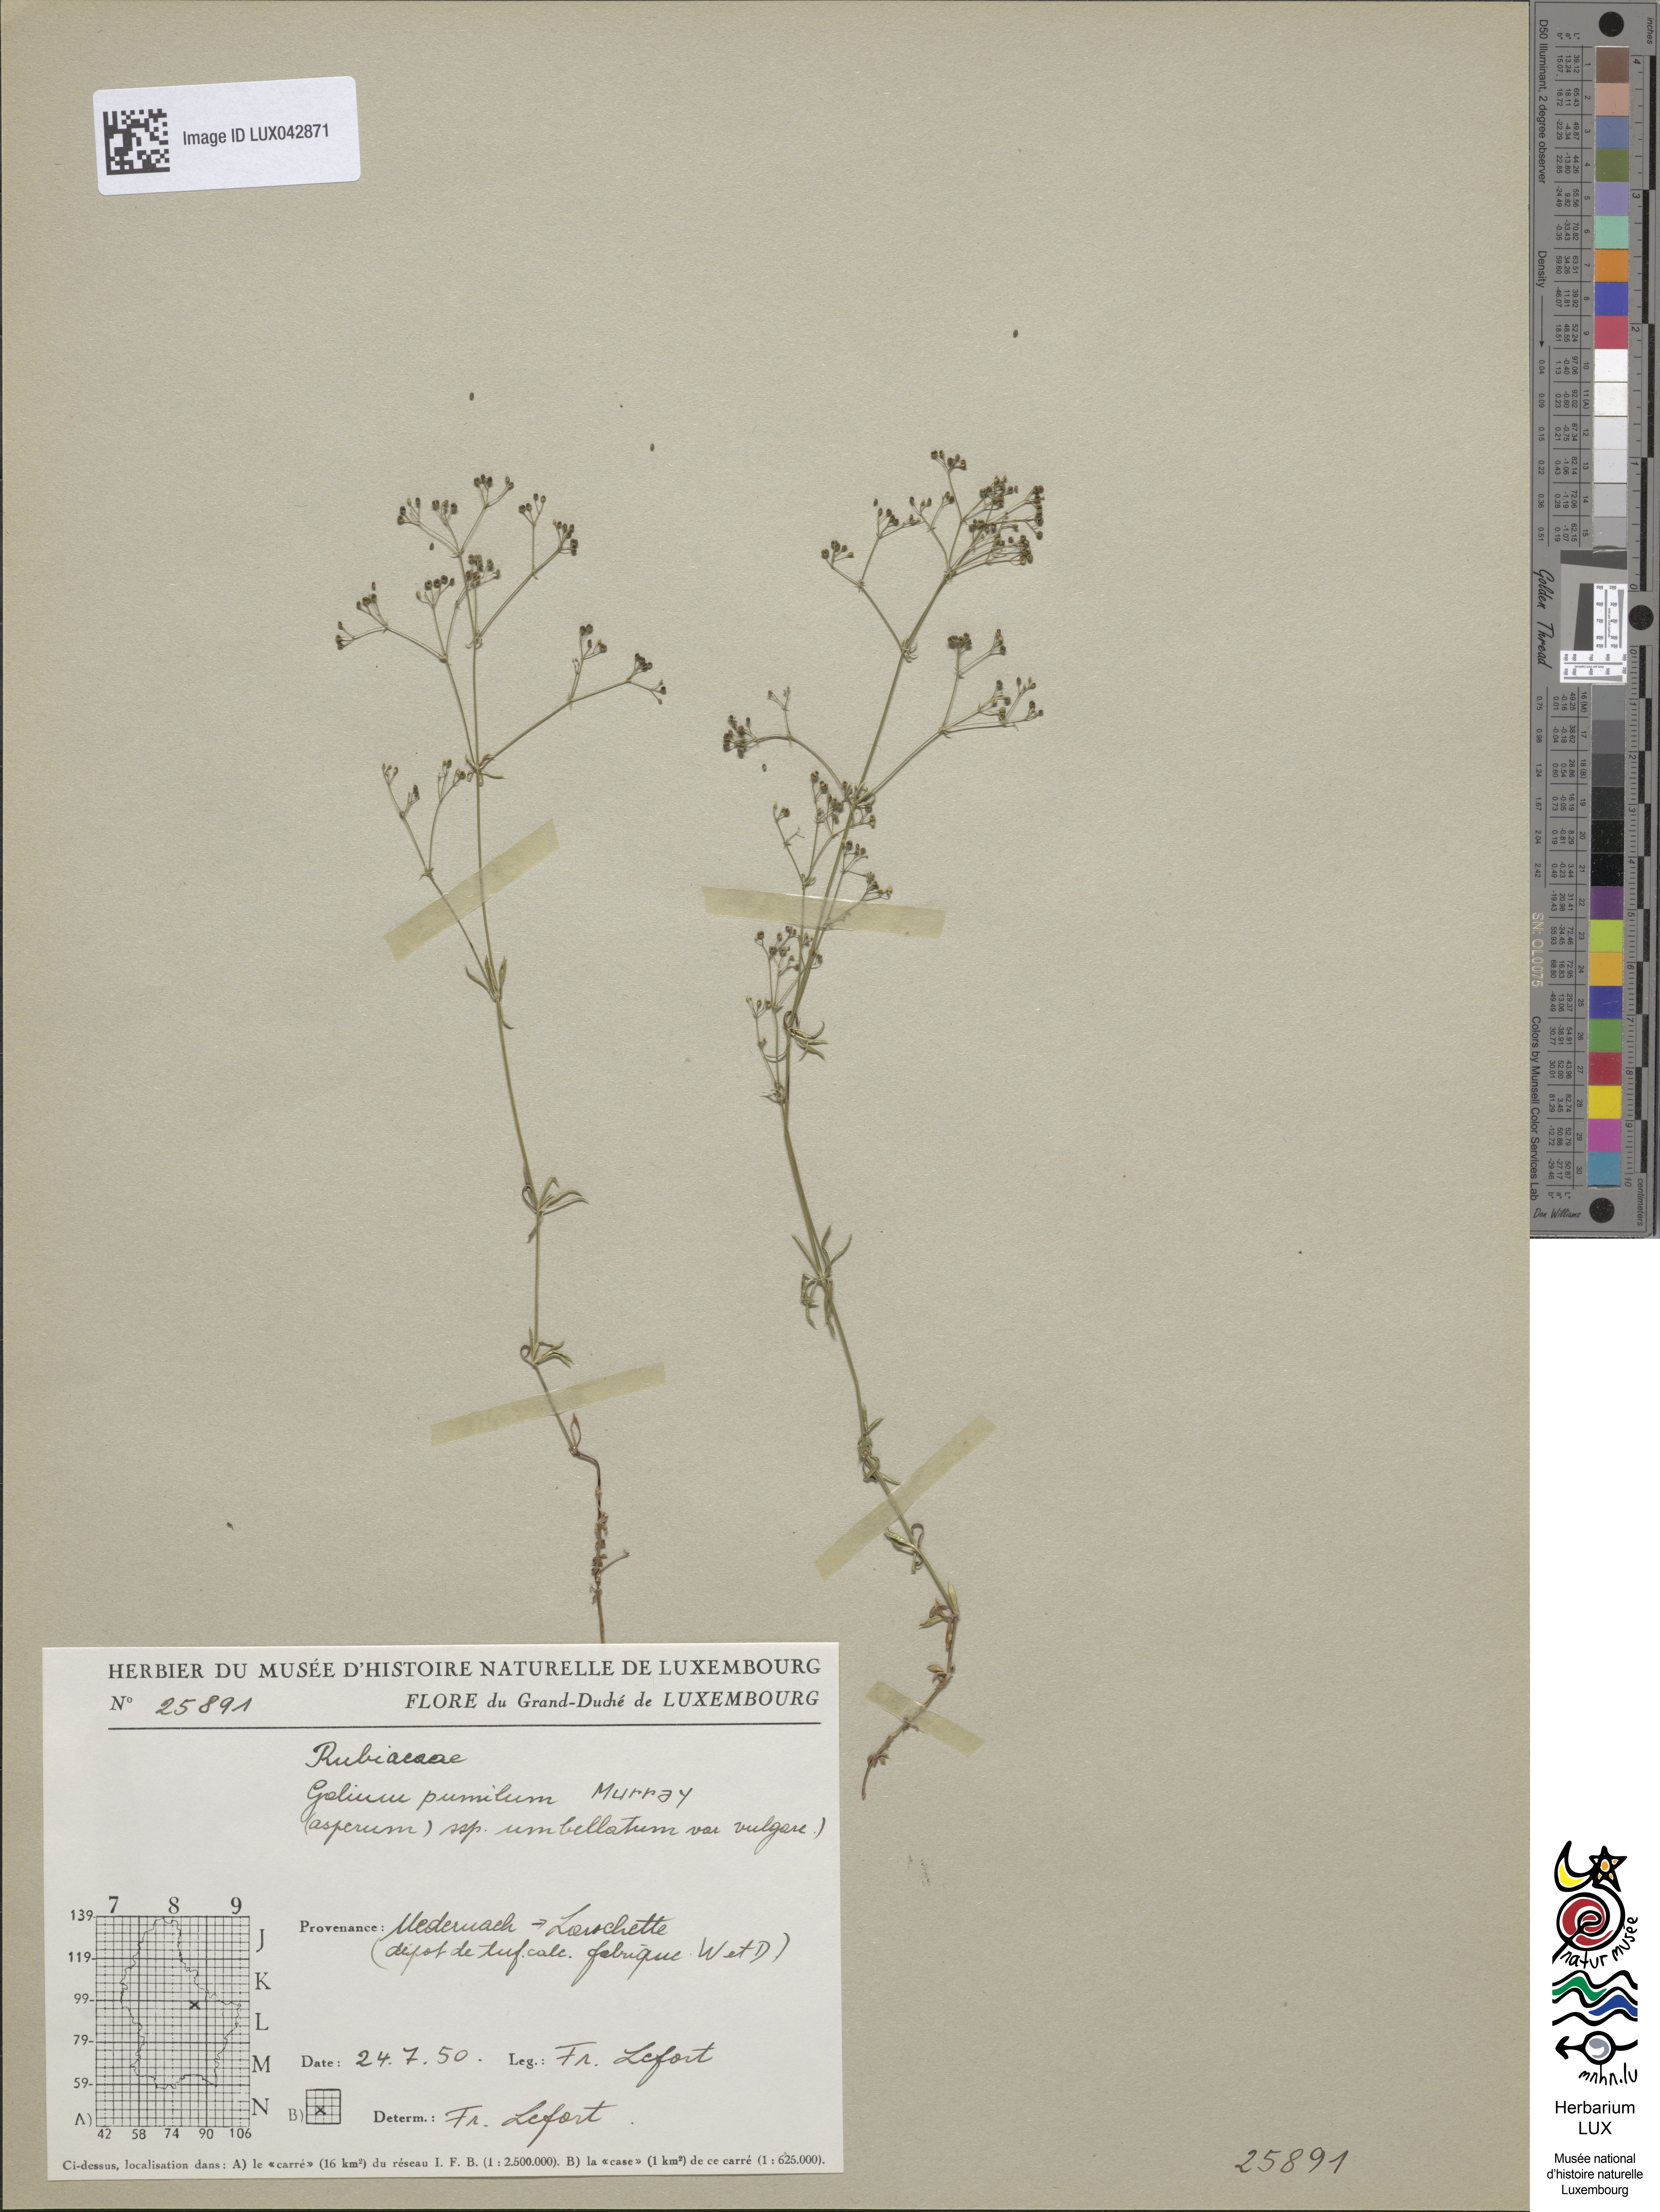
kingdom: Plantae
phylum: Tracheophyta
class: Magnoliopsida
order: Gentianales
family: Rubiaceae
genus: Galium
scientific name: Galium pumilum
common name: Slender bedstraw
